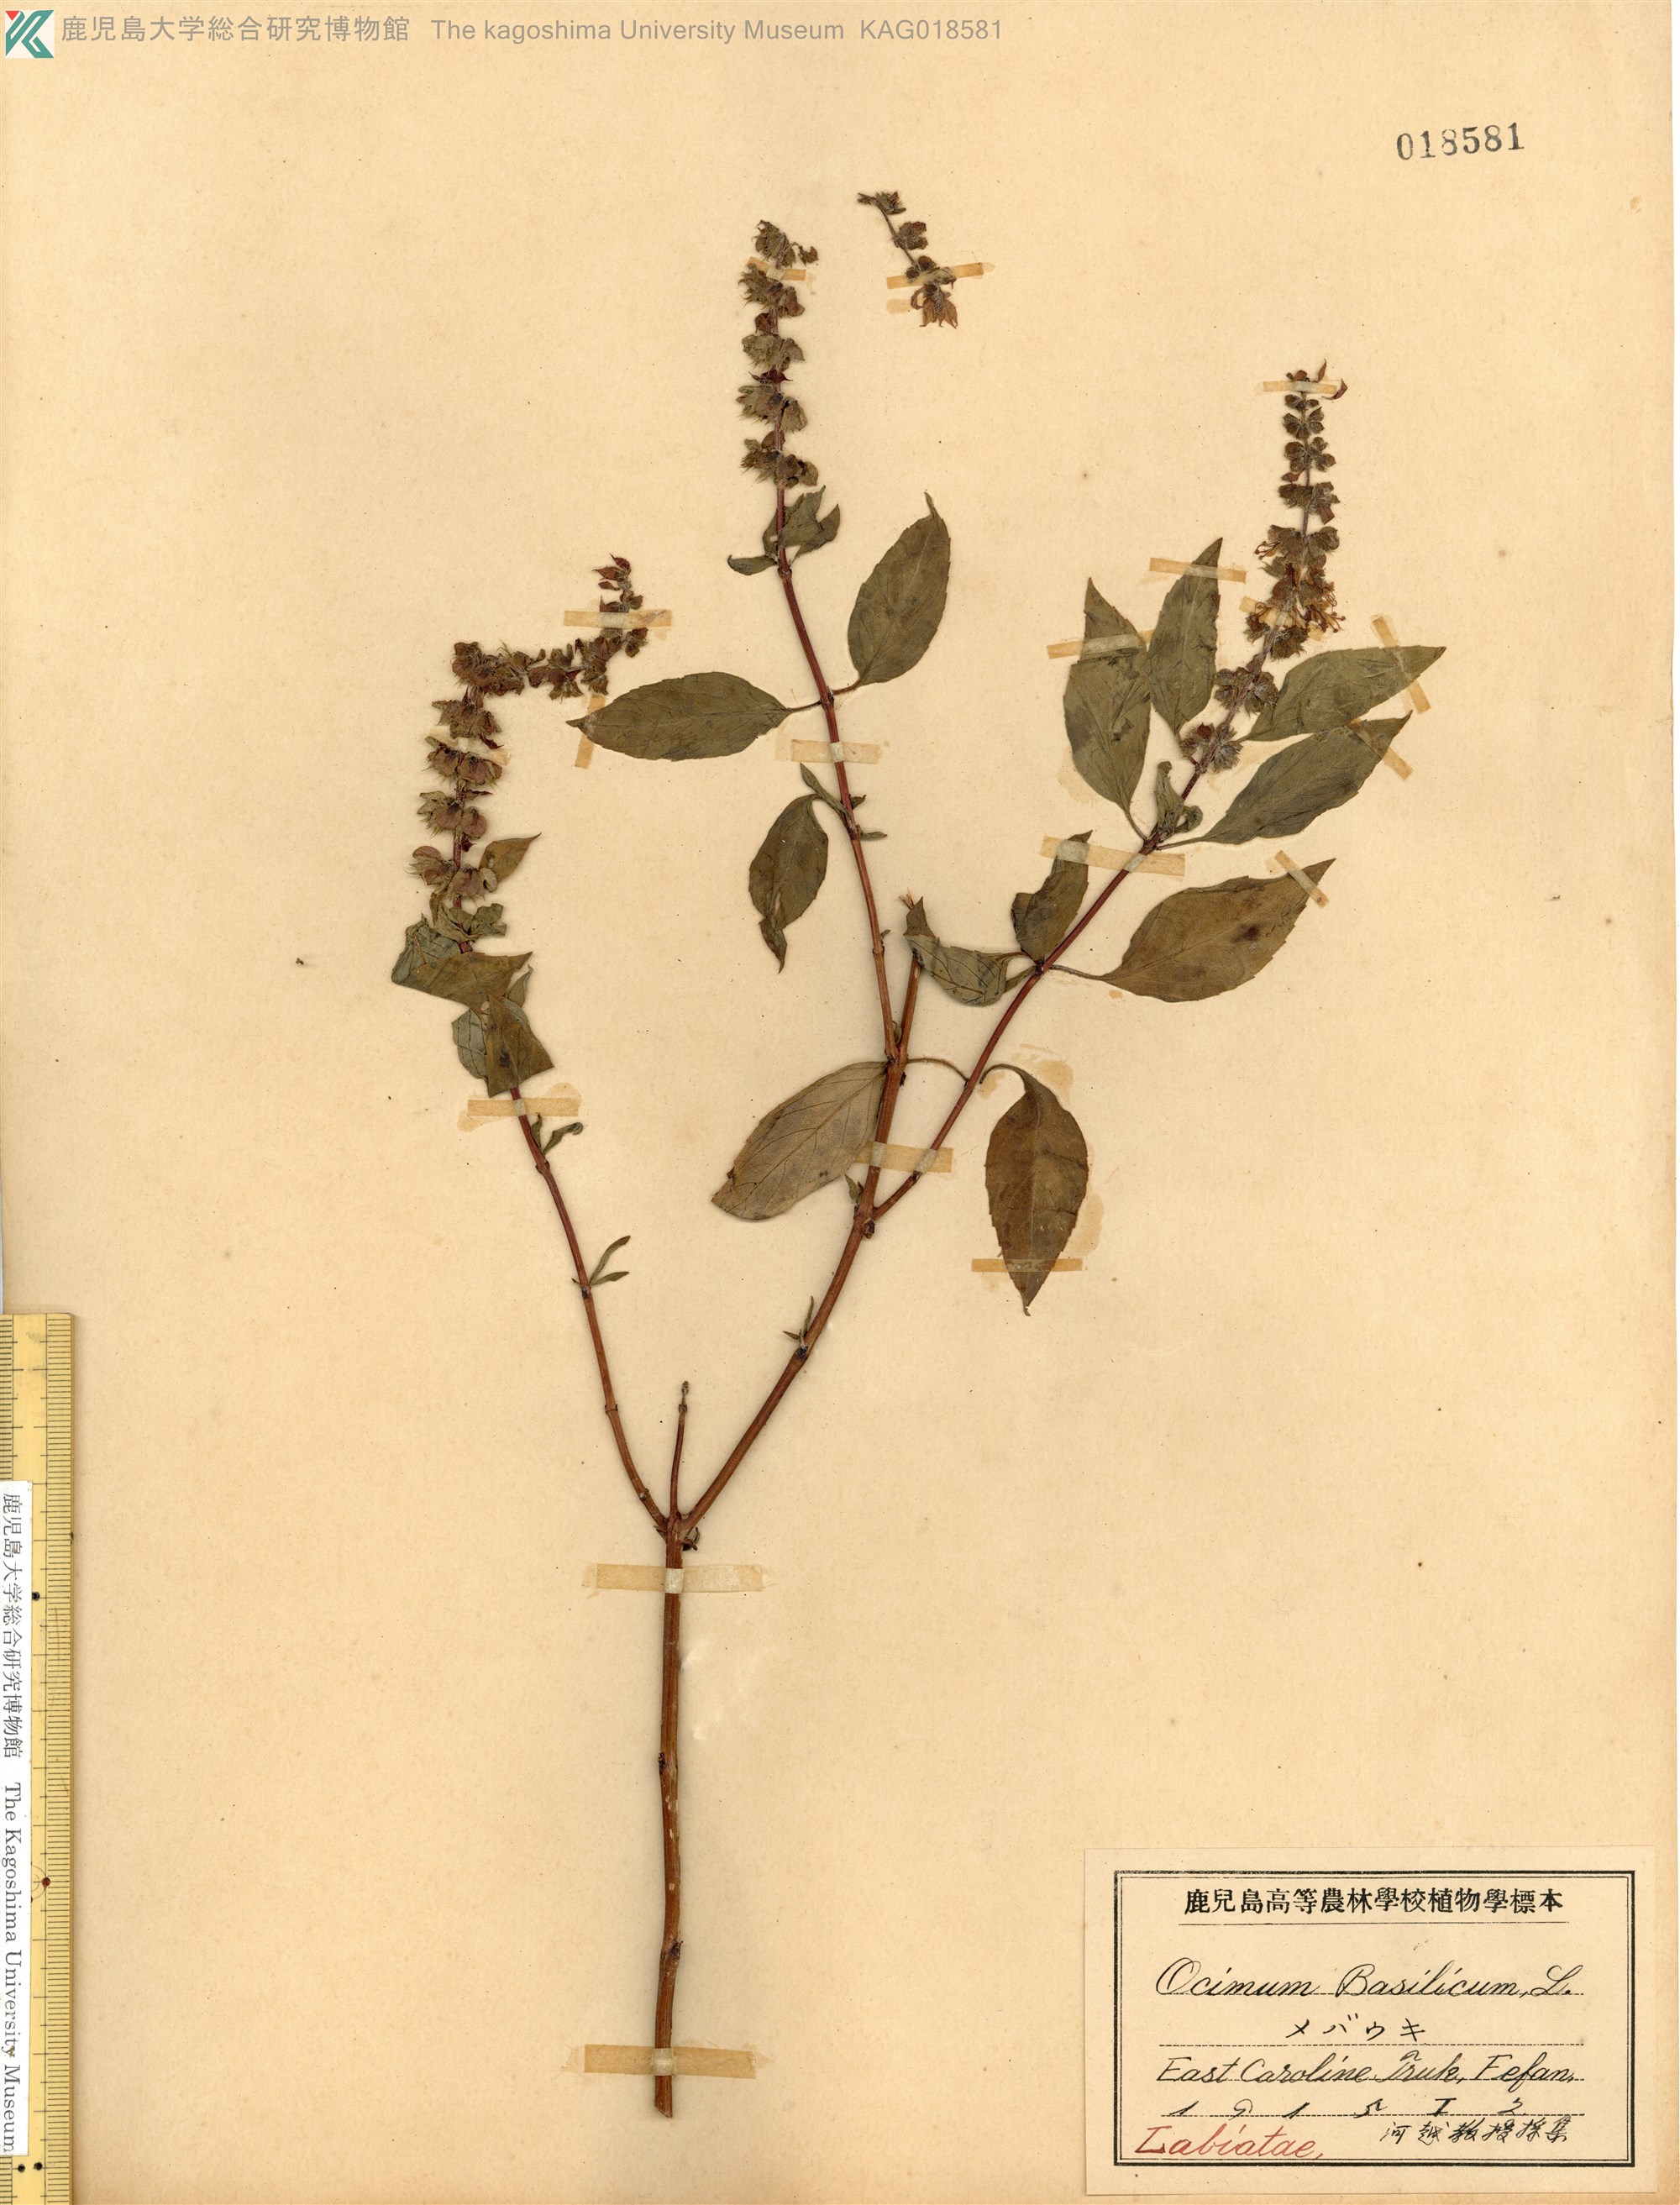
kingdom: Plantae
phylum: Tracheophyta
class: Magnoliopsida
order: Lamiales
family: Lamiaceae
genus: Ocimum
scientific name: Ocimum basilicum
